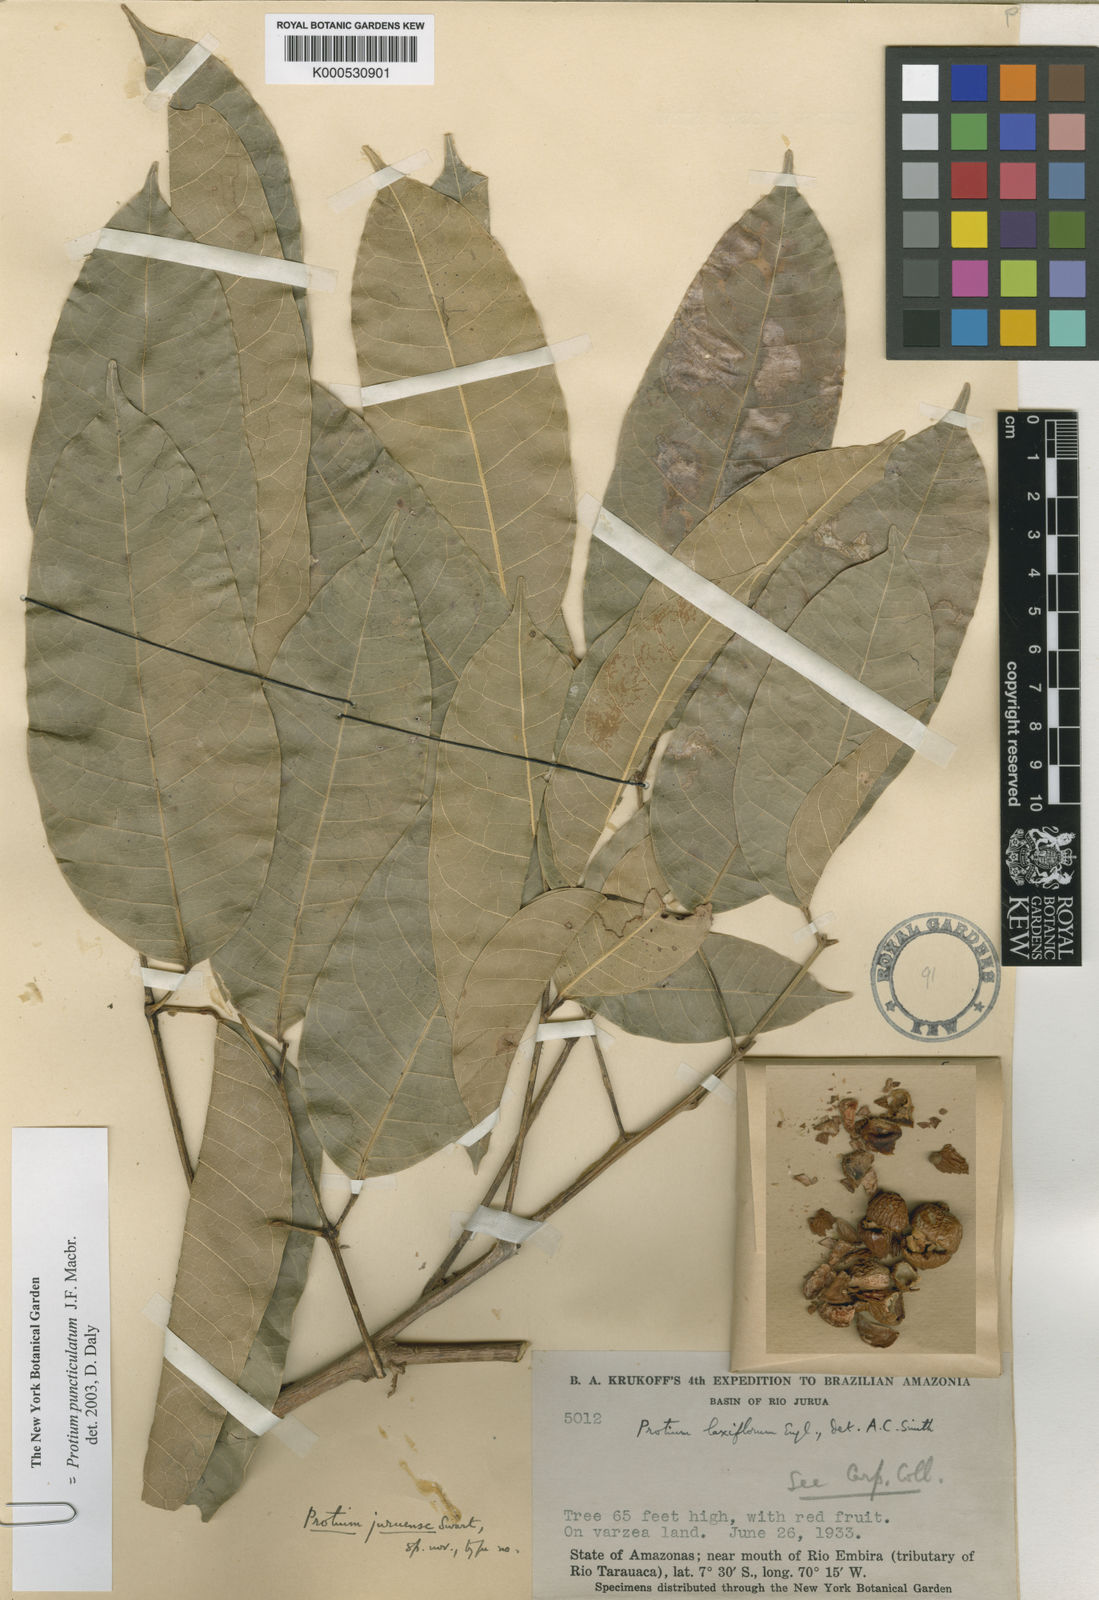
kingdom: Plantae
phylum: Tracheophyta
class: Magnoliopsida
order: Sapindales
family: Burseraceae
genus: Protium
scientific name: Protium puncticulatum
